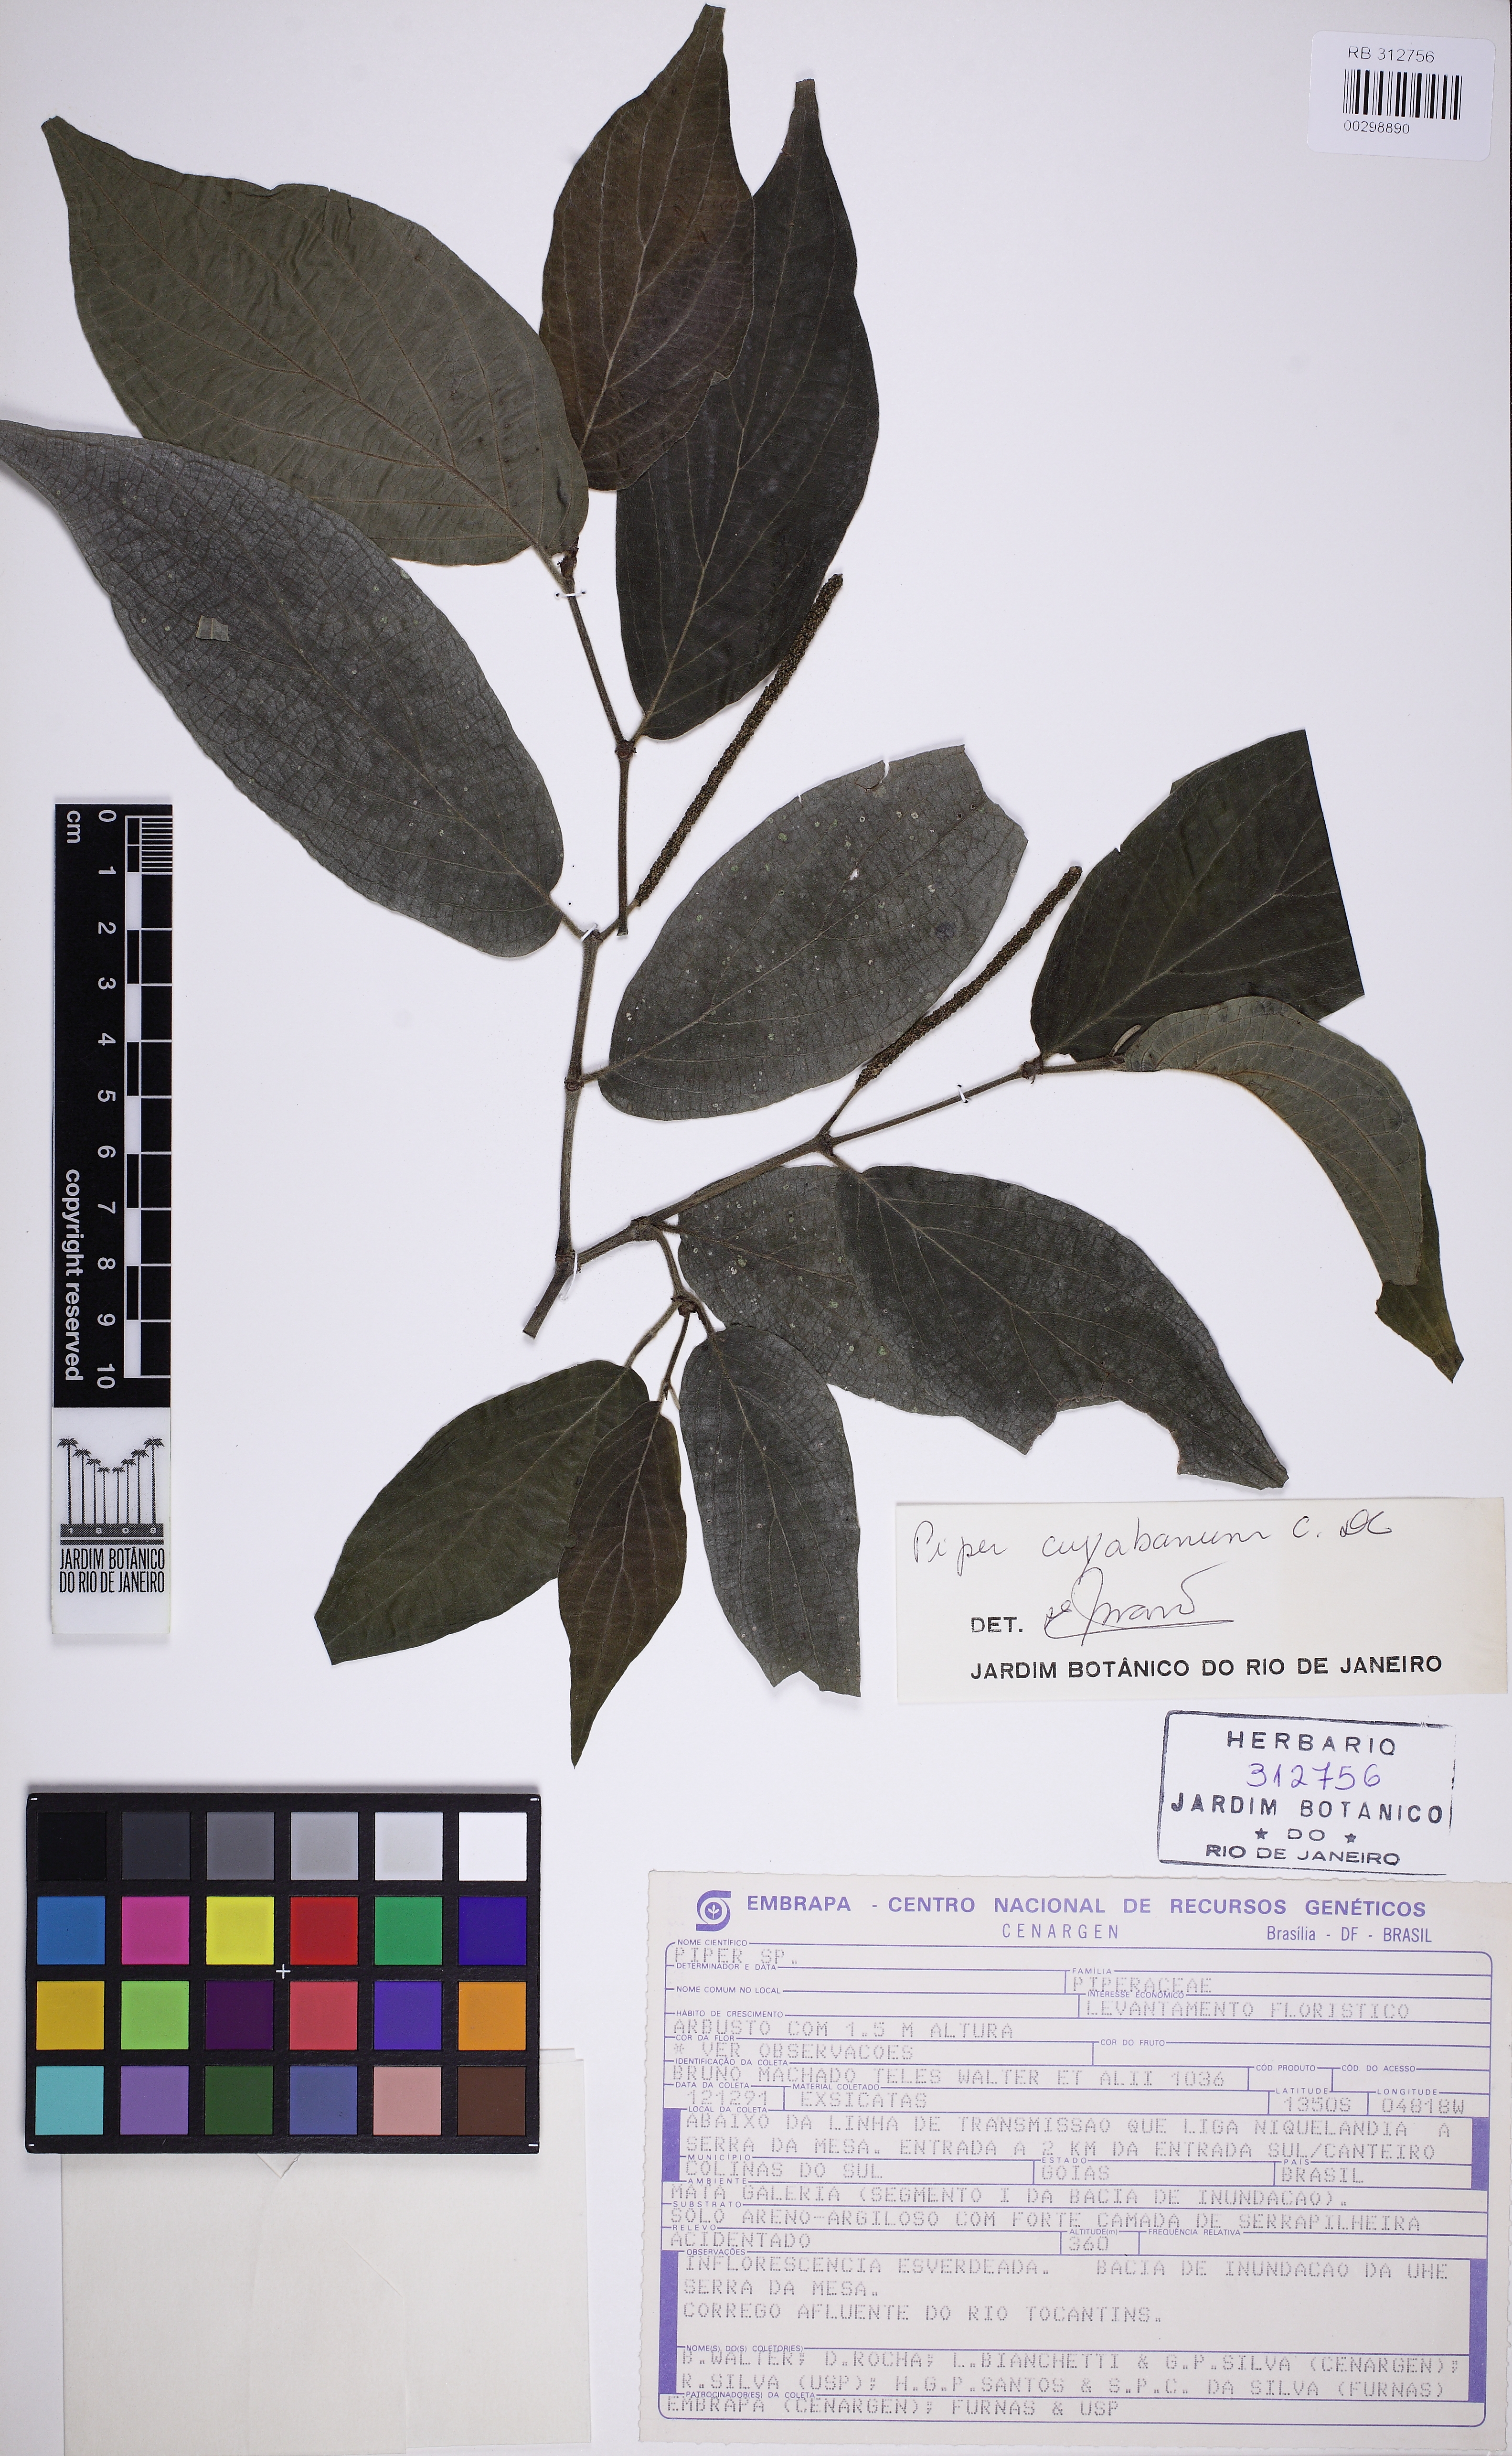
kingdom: Plantae
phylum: Tracheophyta
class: Magnoliopsida
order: Piperales
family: Piperaceae
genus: Piper
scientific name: Piper cuyabanum
